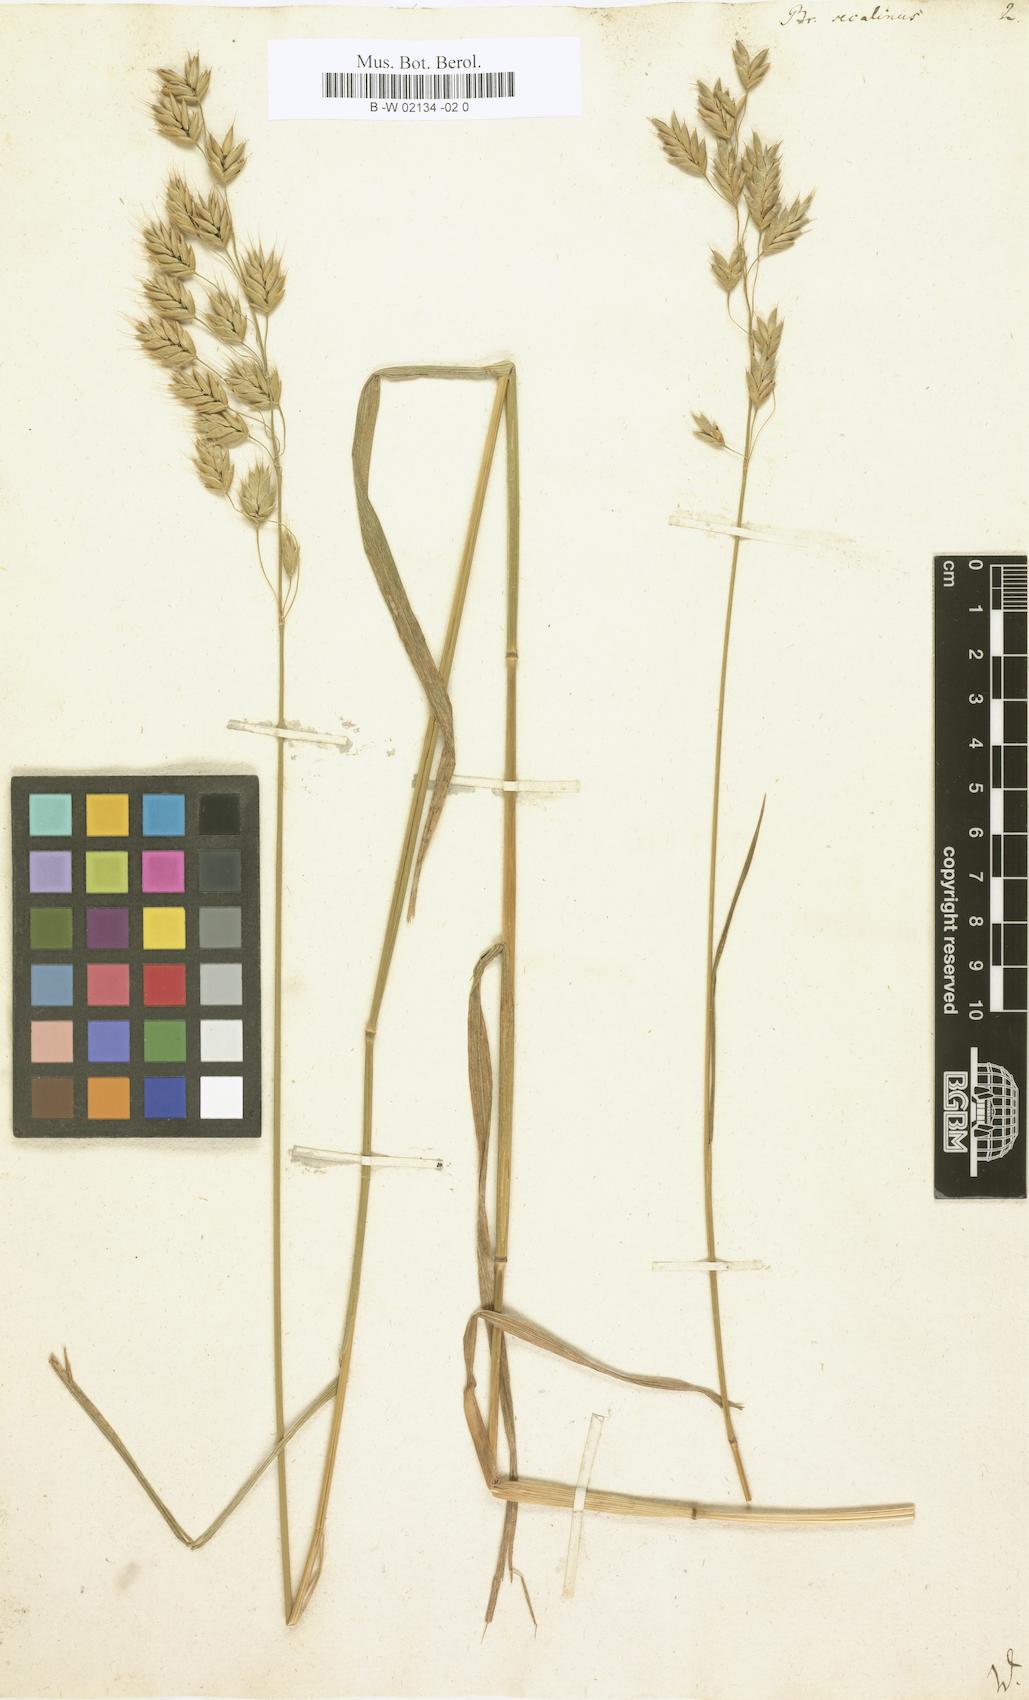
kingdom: Plantae
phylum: Tracheophyta
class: Liliopsida
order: Poales
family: Poaceae
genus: Bromus
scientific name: Bromus secalinus
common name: Rye brome
